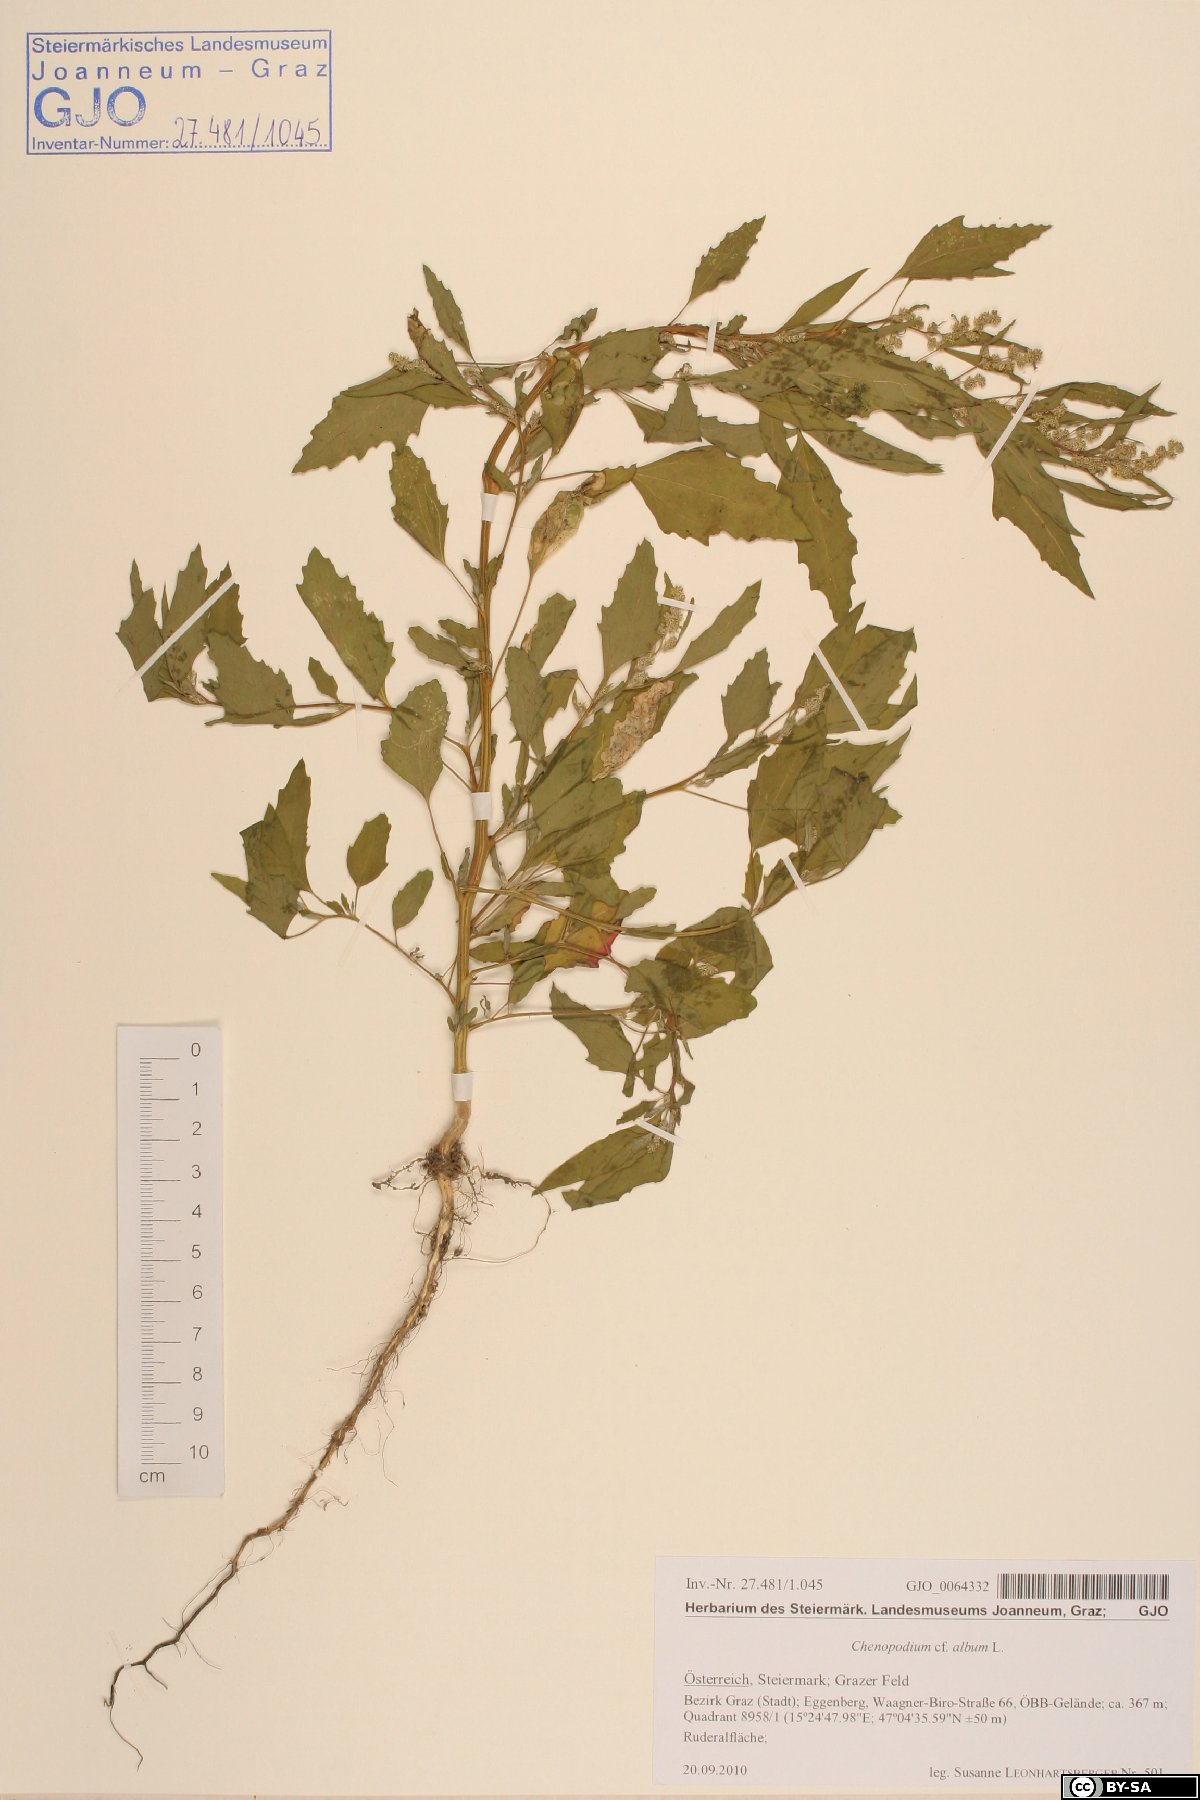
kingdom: Plantae
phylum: Tracheophyta
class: Magnoliopsida
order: Caryophyllales
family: Amaranthaceae
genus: Chenopodium
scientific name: Chenopodium album
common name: Fat-hen
